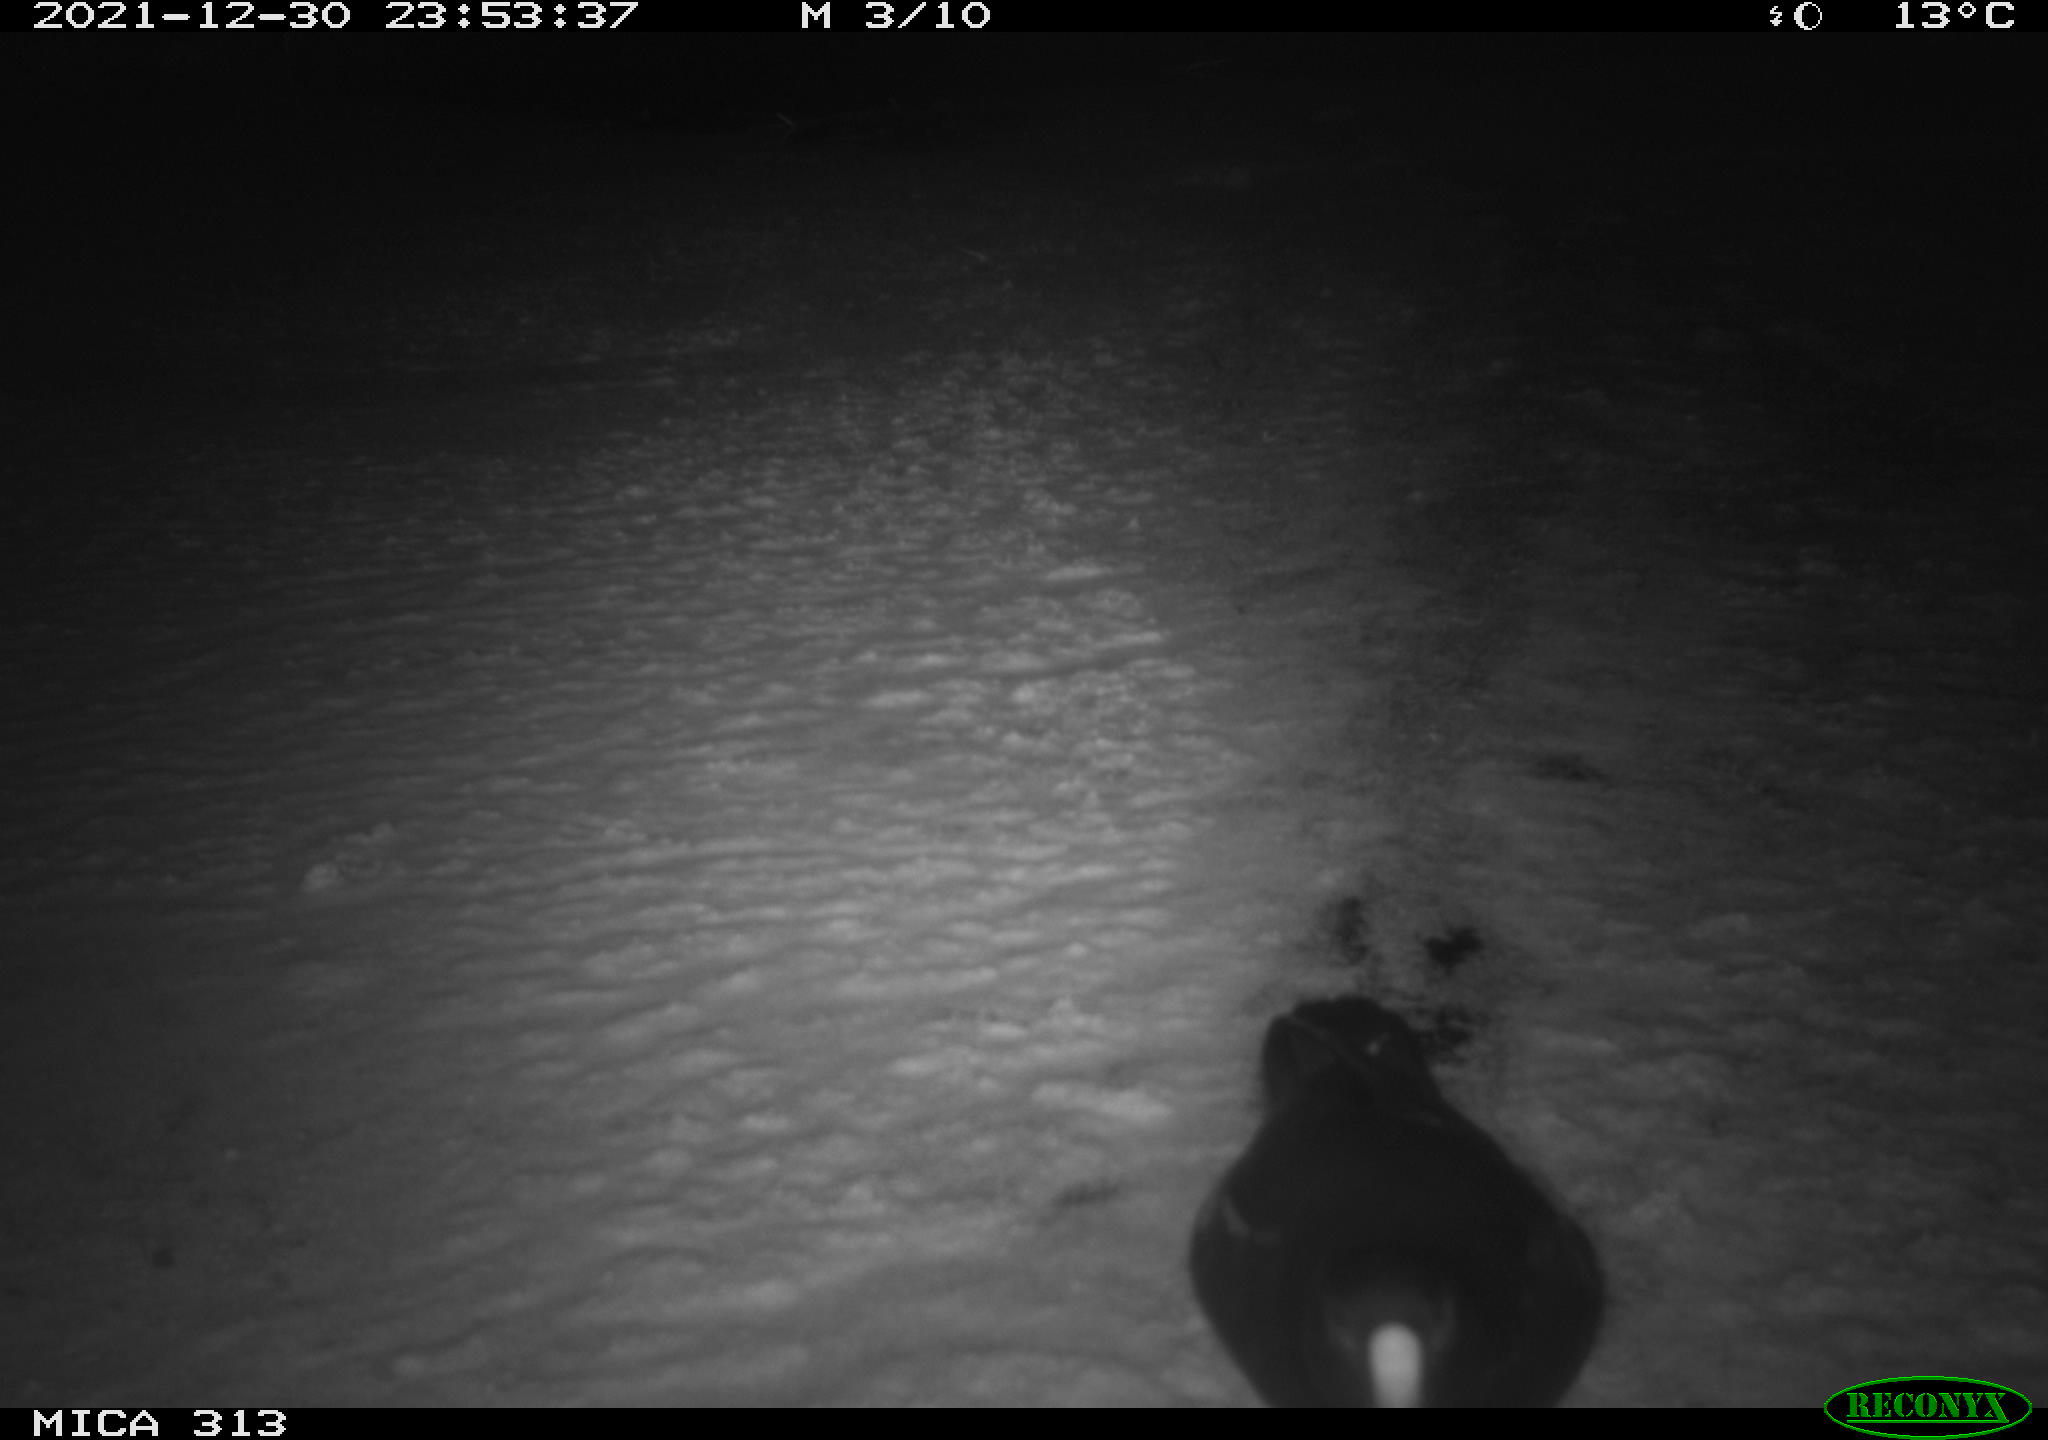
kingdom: Animalia
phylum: Chordata
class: Aves
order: Gruiformes
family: Rallidae
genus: Gallinula
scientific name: Gallinula chloropus
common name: Common moorhen
